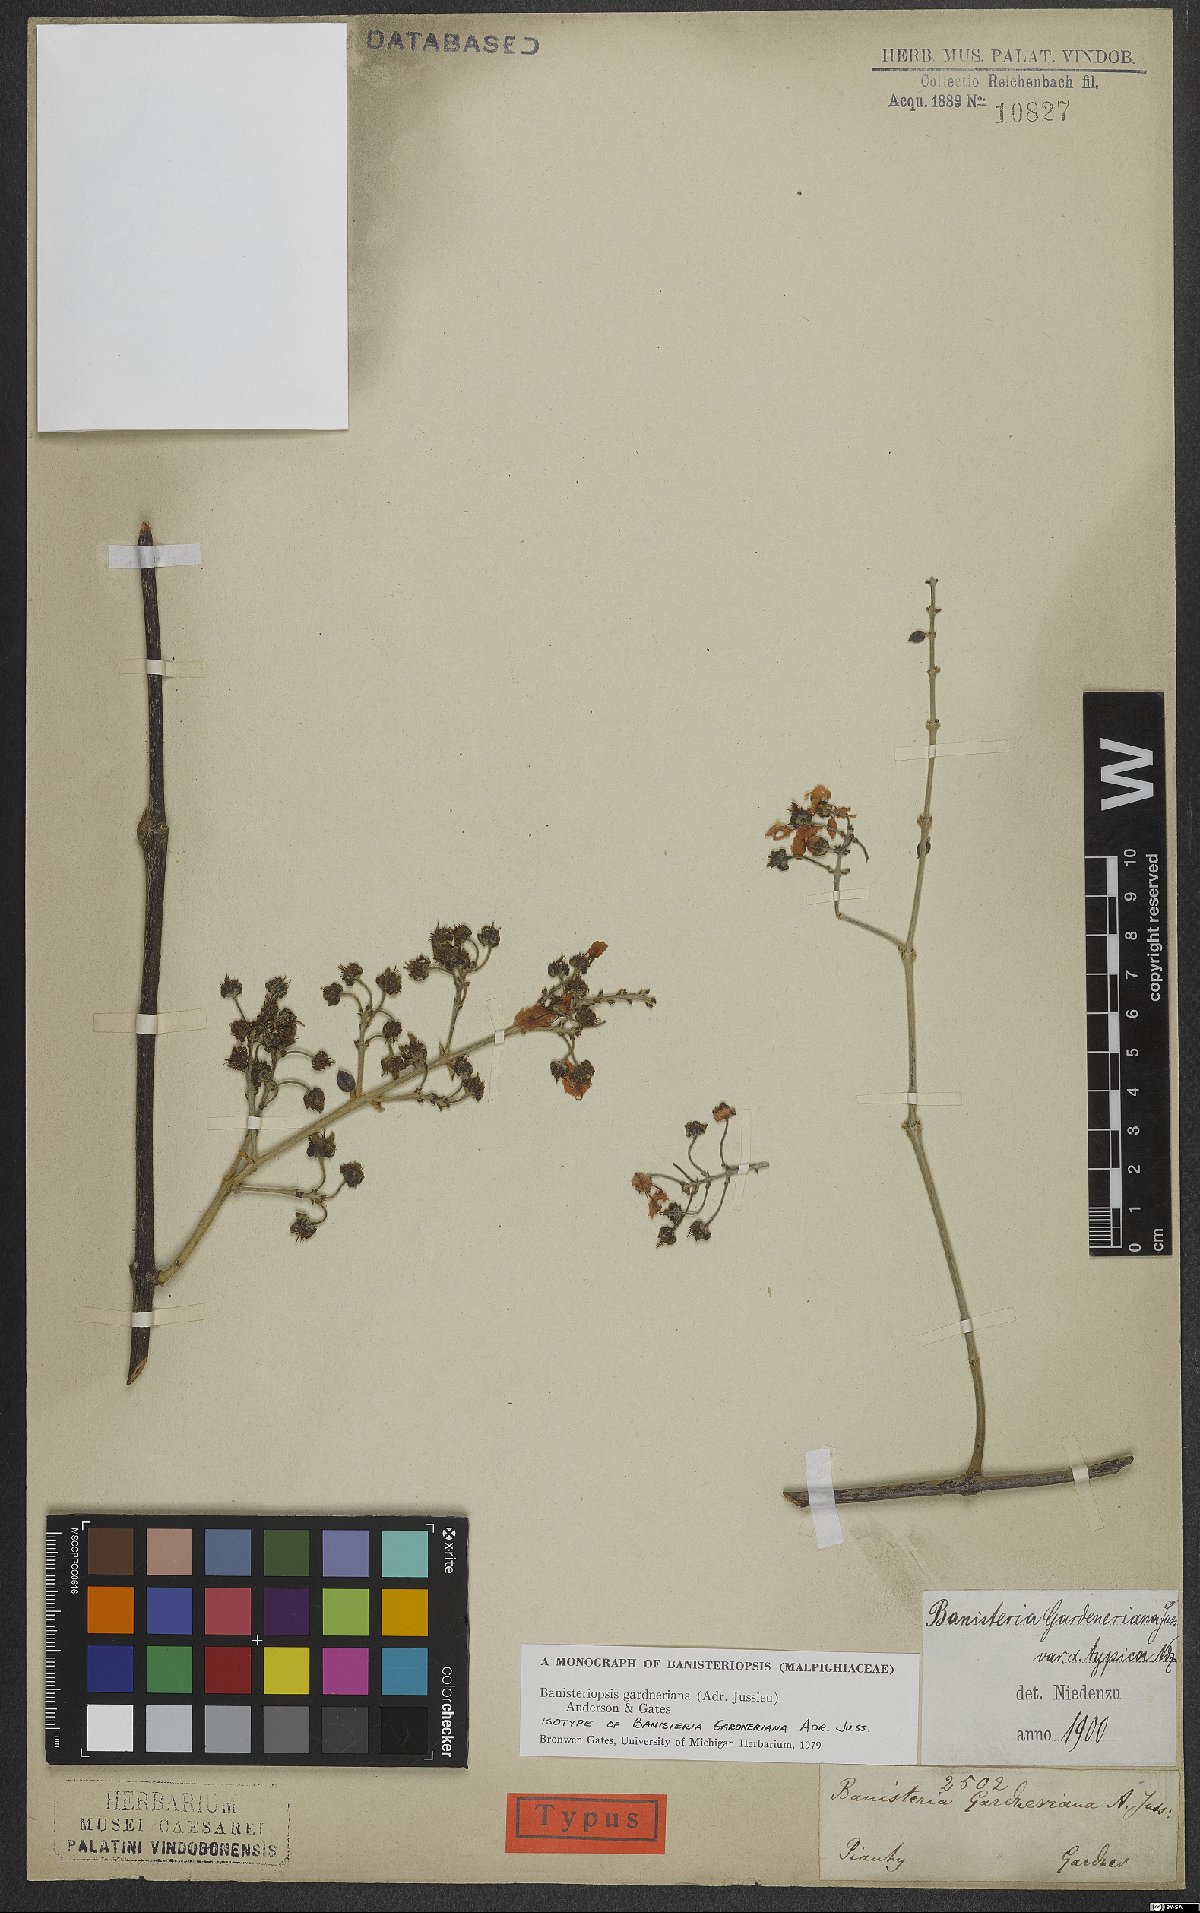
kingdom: Plantae
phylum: Tracheophyta
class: Magnoliopsida
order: Malpighiales
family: Malpighiaceae
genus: Banisteriopsis
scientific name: Banisteriopsis gardneriana
